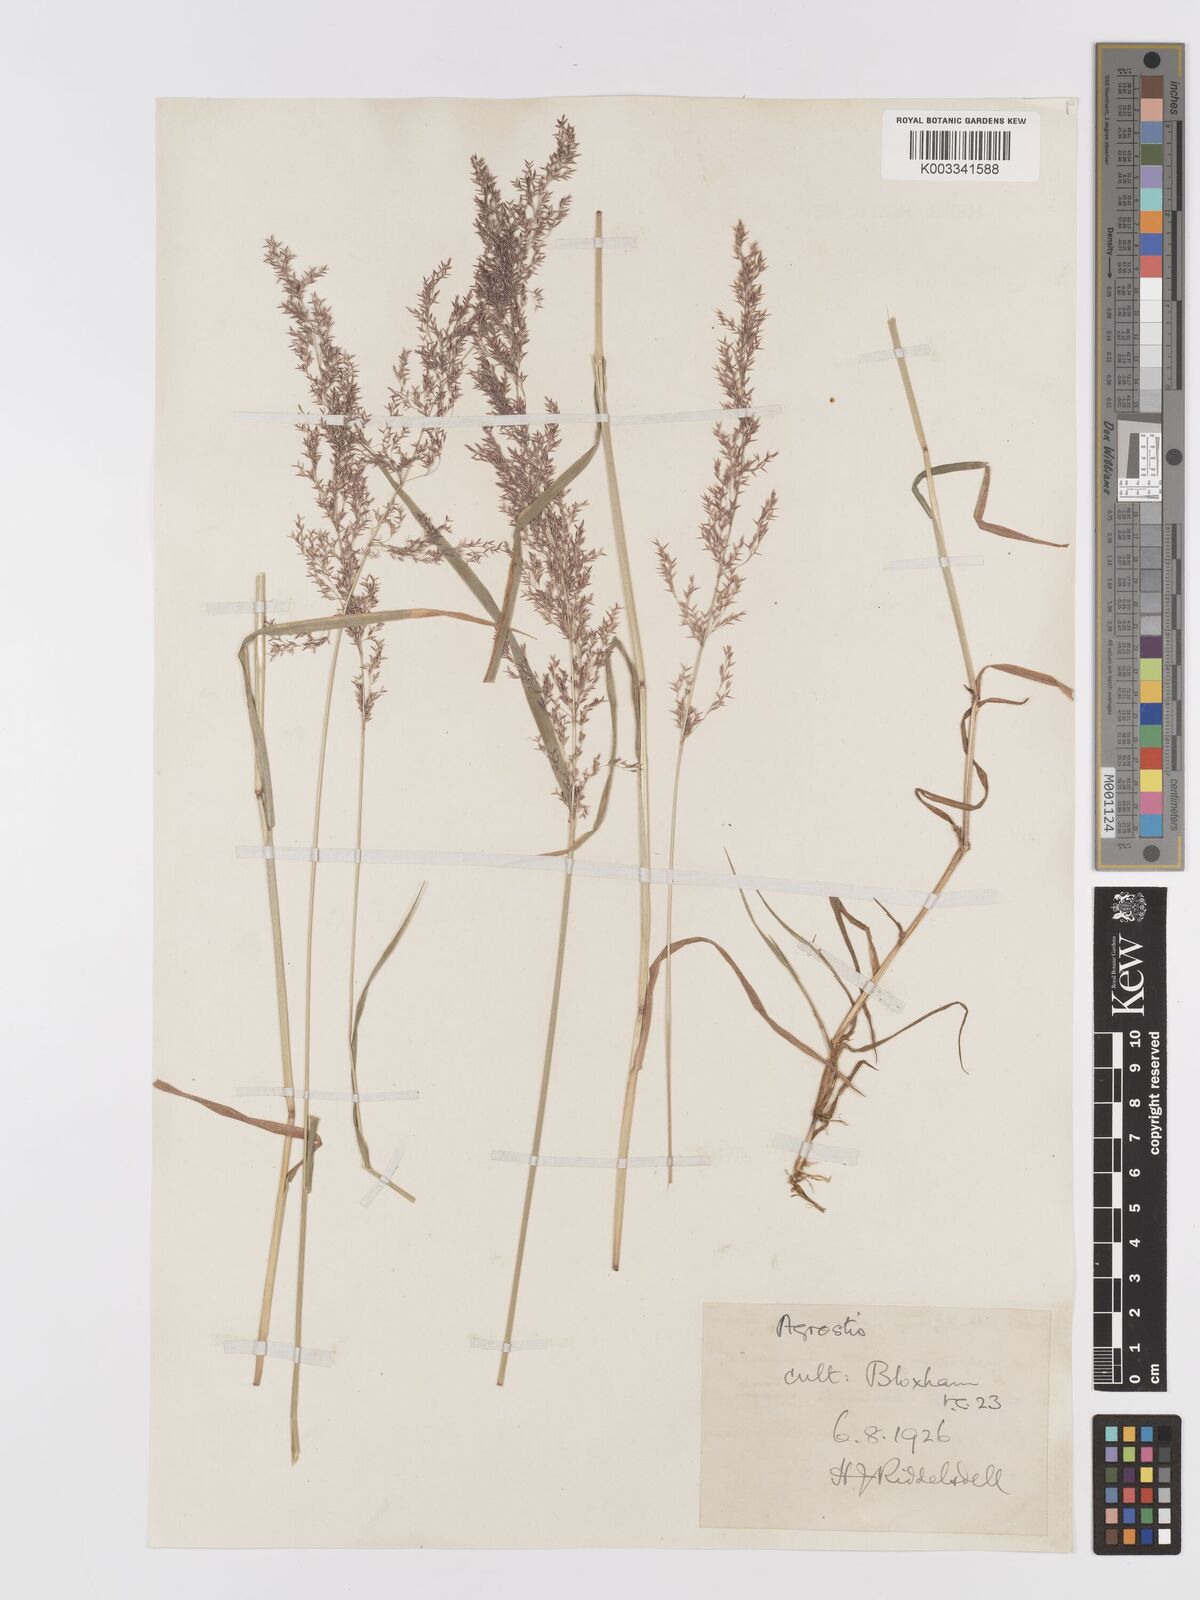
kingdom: Plantae
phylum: Tracheophyta
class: Liliopsida
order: Poales
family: Poaceae
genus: Agrostis
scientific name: Agrostis stolonifera
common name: Creeping bentgrass
